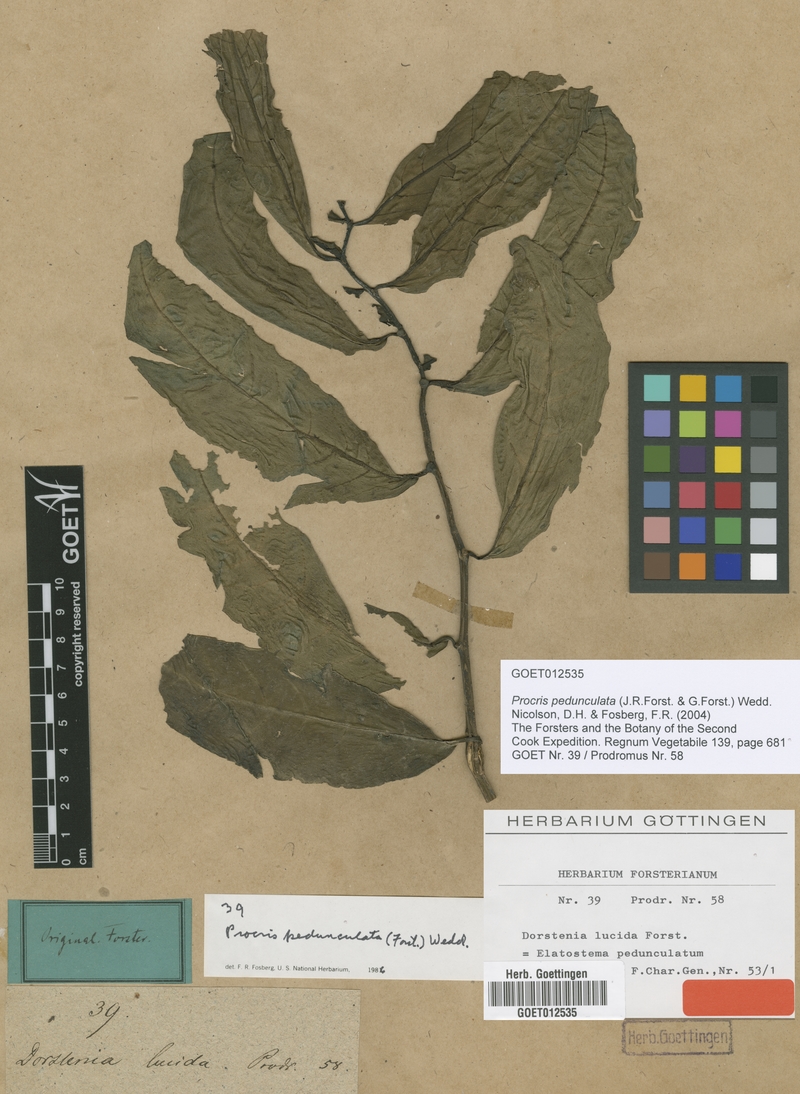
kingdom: Plantae
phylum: Tracheophyta
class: Magnoliopsida
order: Rosales
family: Urticaceae
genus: Procris
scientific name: Procris pedunculata
